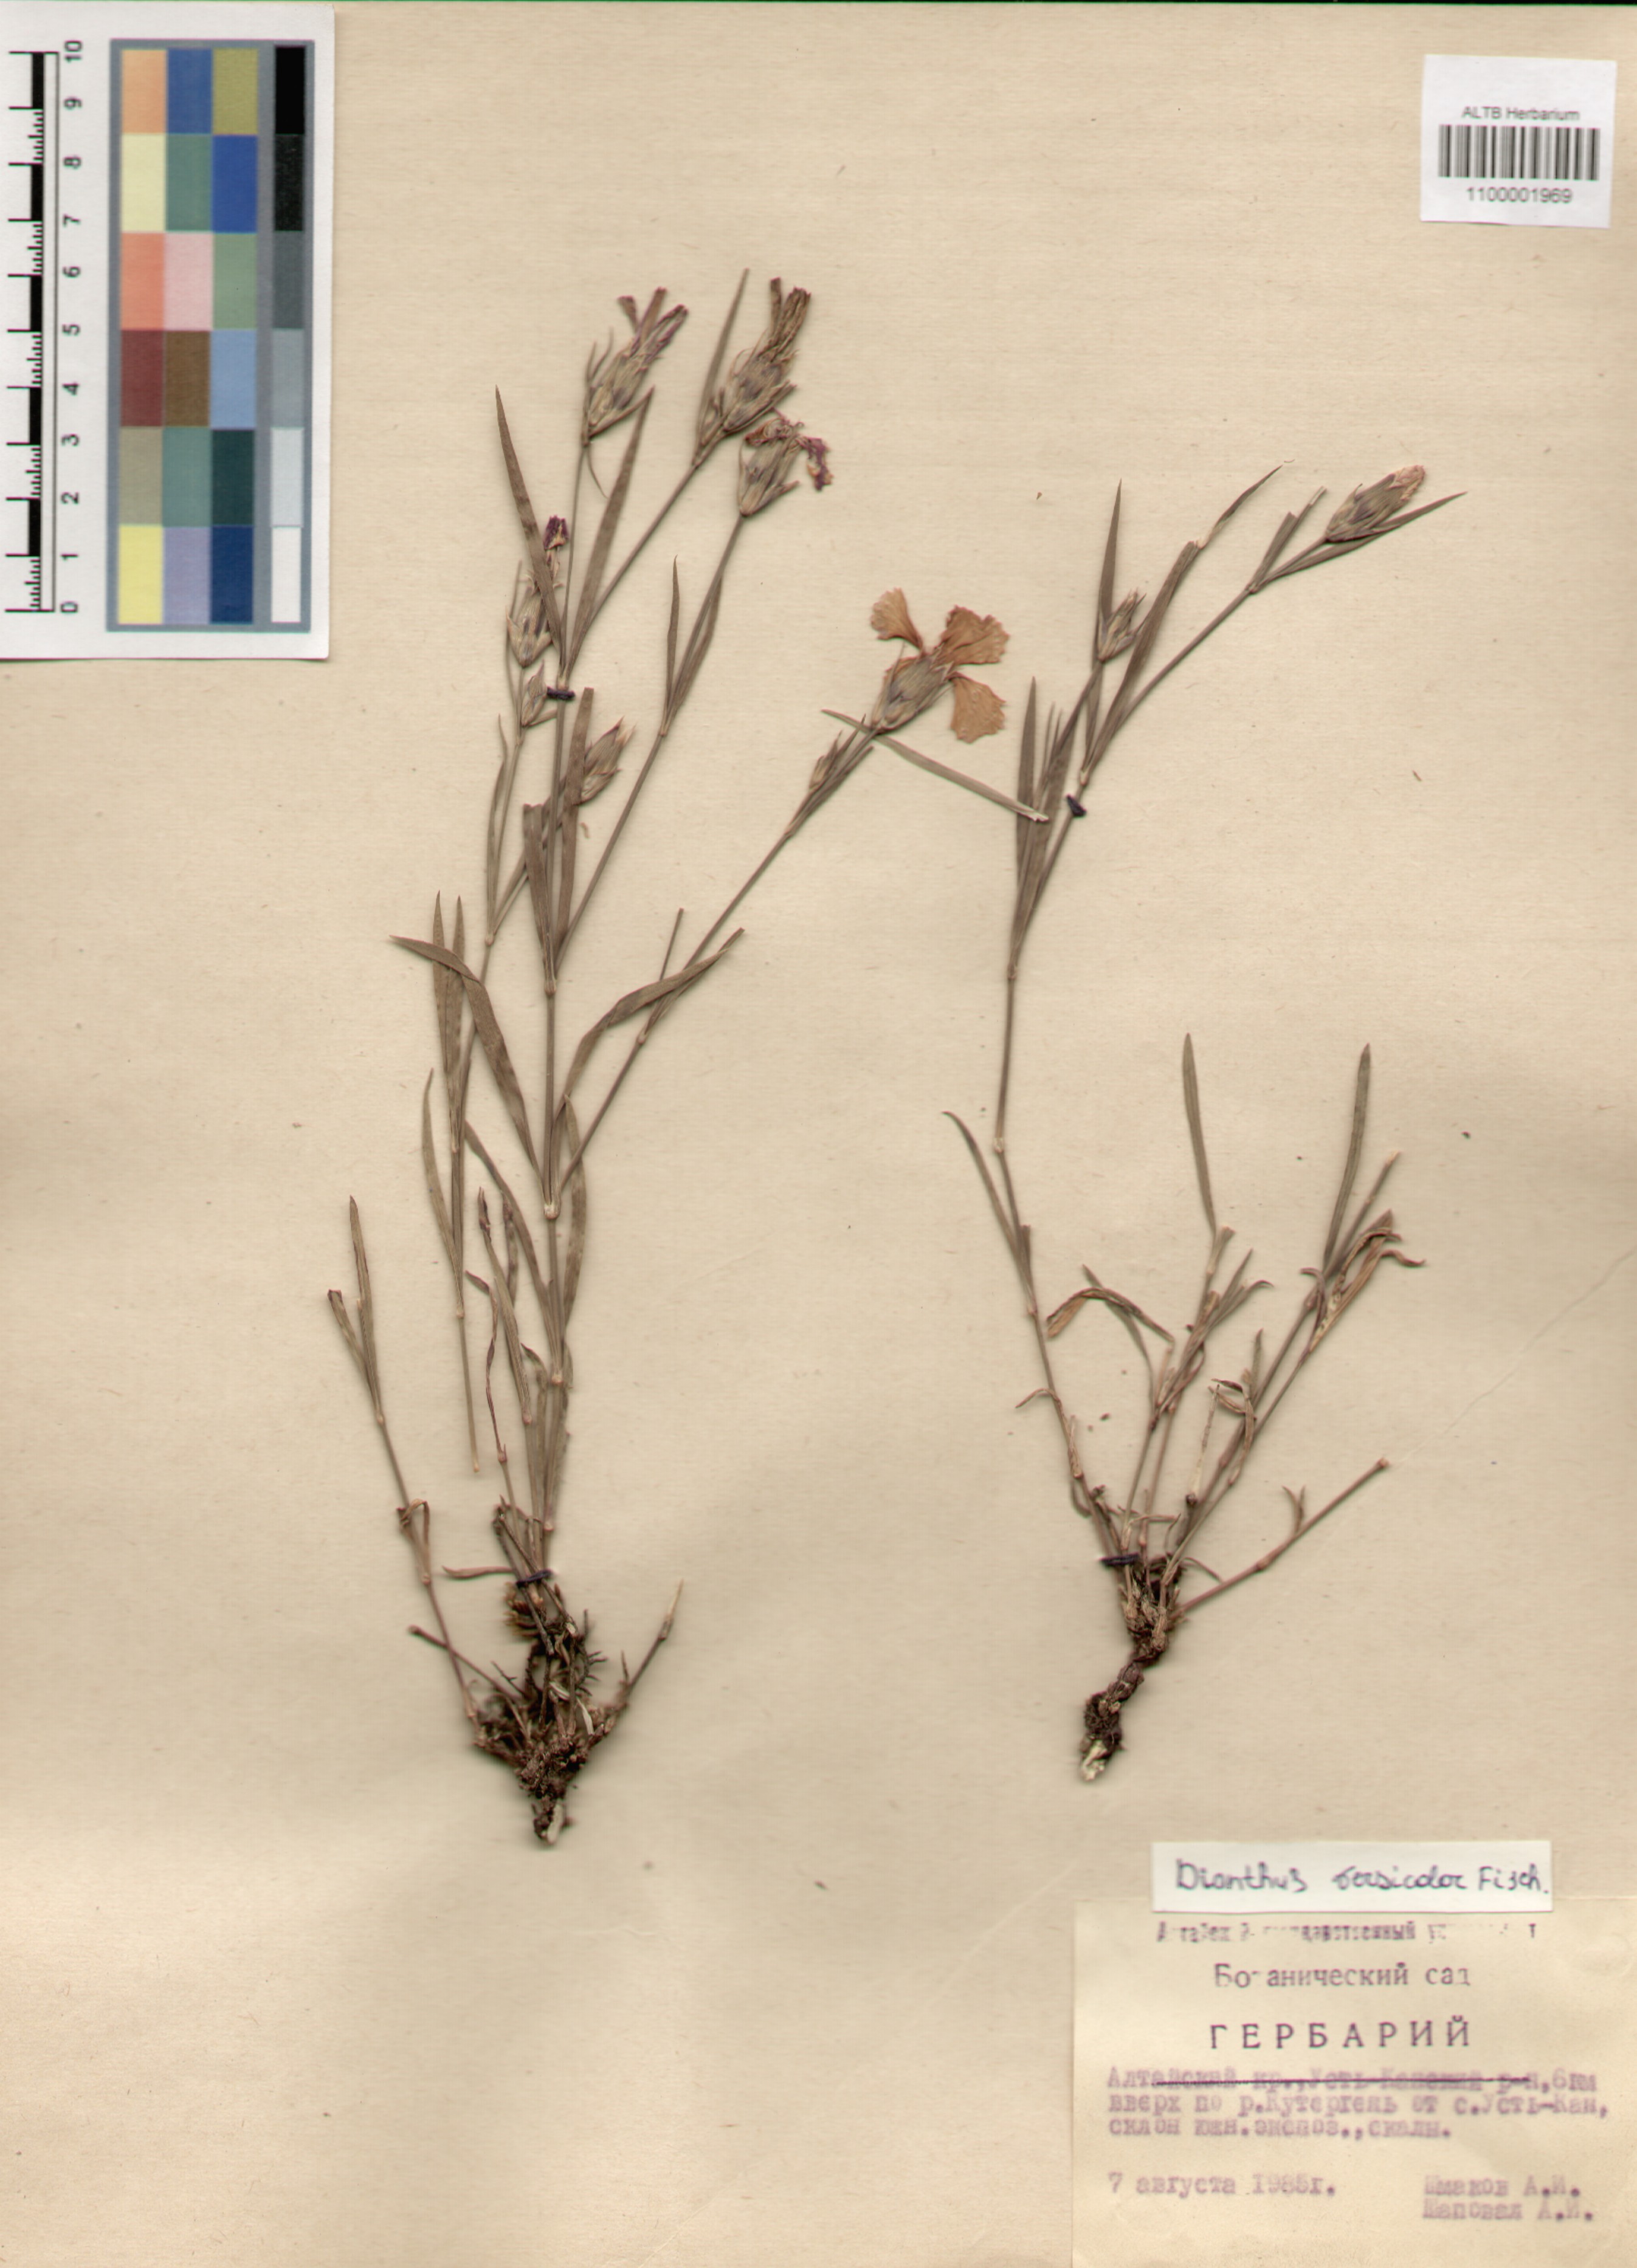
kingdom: Plantae
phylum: Tracheophyta
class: Magnoliopsida
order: Caryophyllales
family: Caryophyllaceae
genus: Dianthus
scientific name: Dianthus chinensis
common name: Rainbow pink
